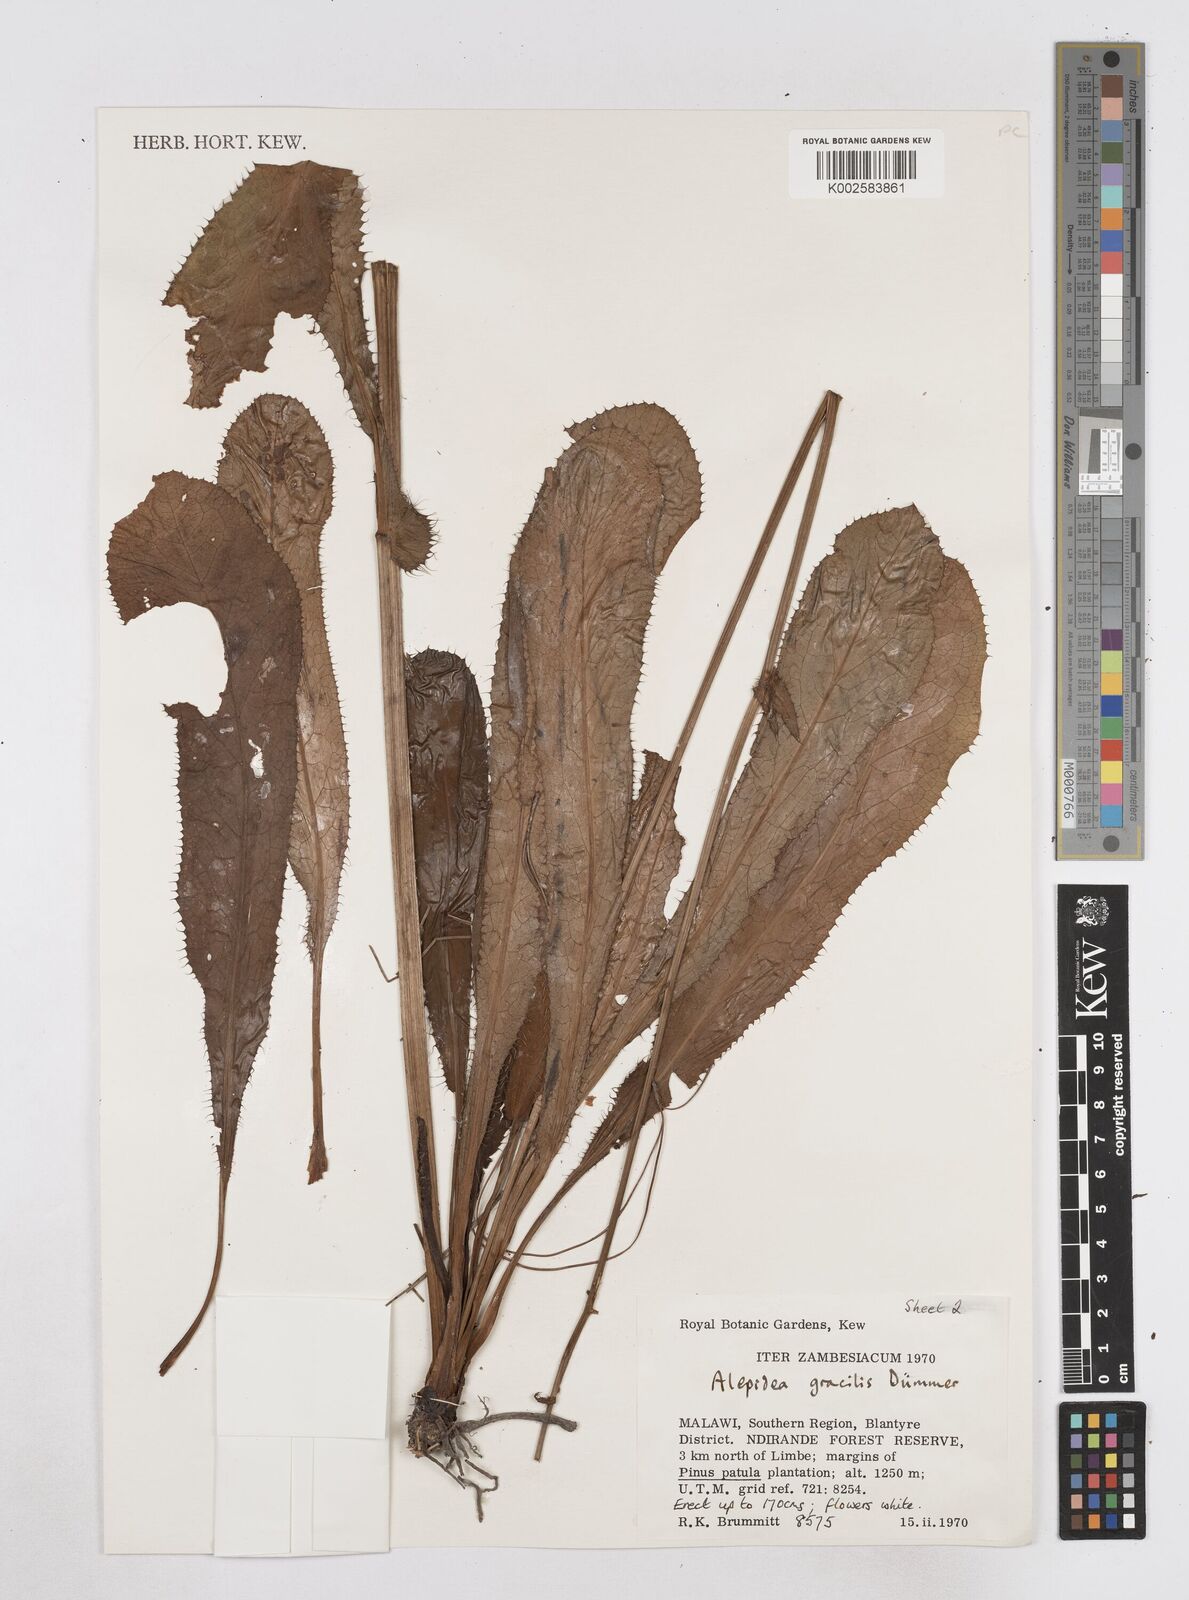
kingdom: Plantae
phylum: Tracheophyta
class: Magnoliopsida
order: Apiales
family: Apiaceae
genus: Alepidea
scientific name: Alepidea peduncularis
